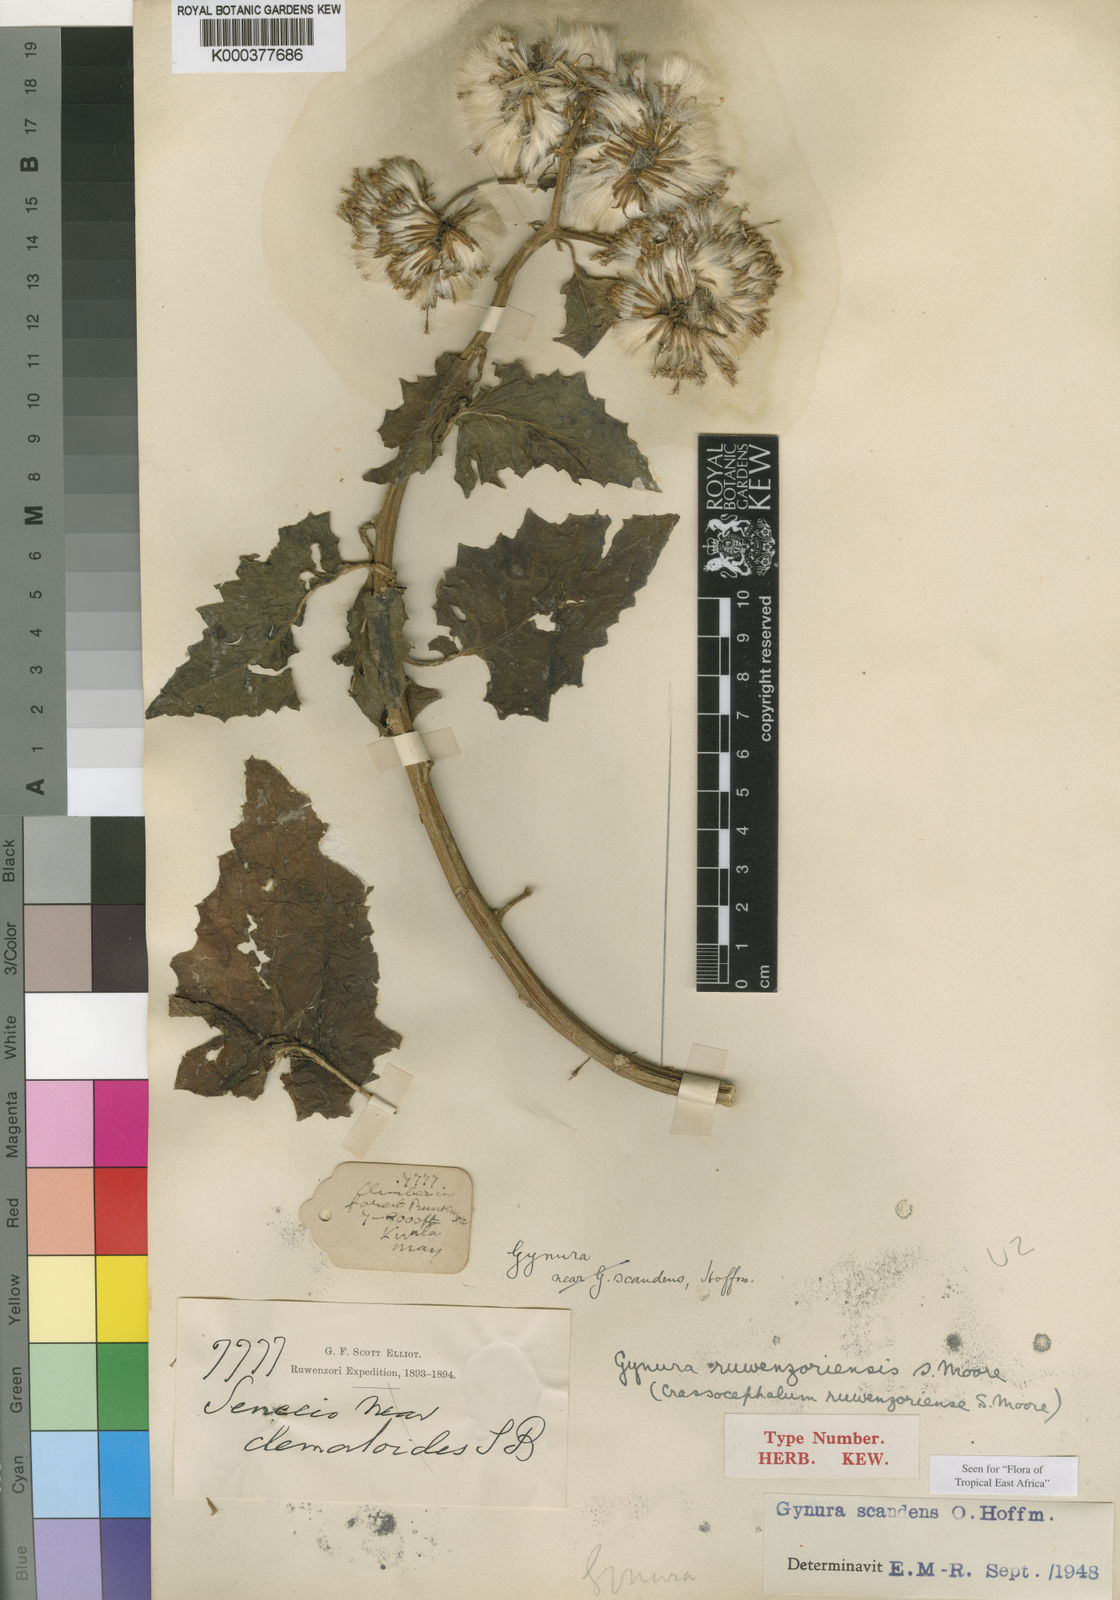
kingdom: Plantae
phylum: Tracheophyta
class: Magnoliopsida
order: Asterales
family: Asteraceae
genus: Gynura
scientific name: Gynura scandens
